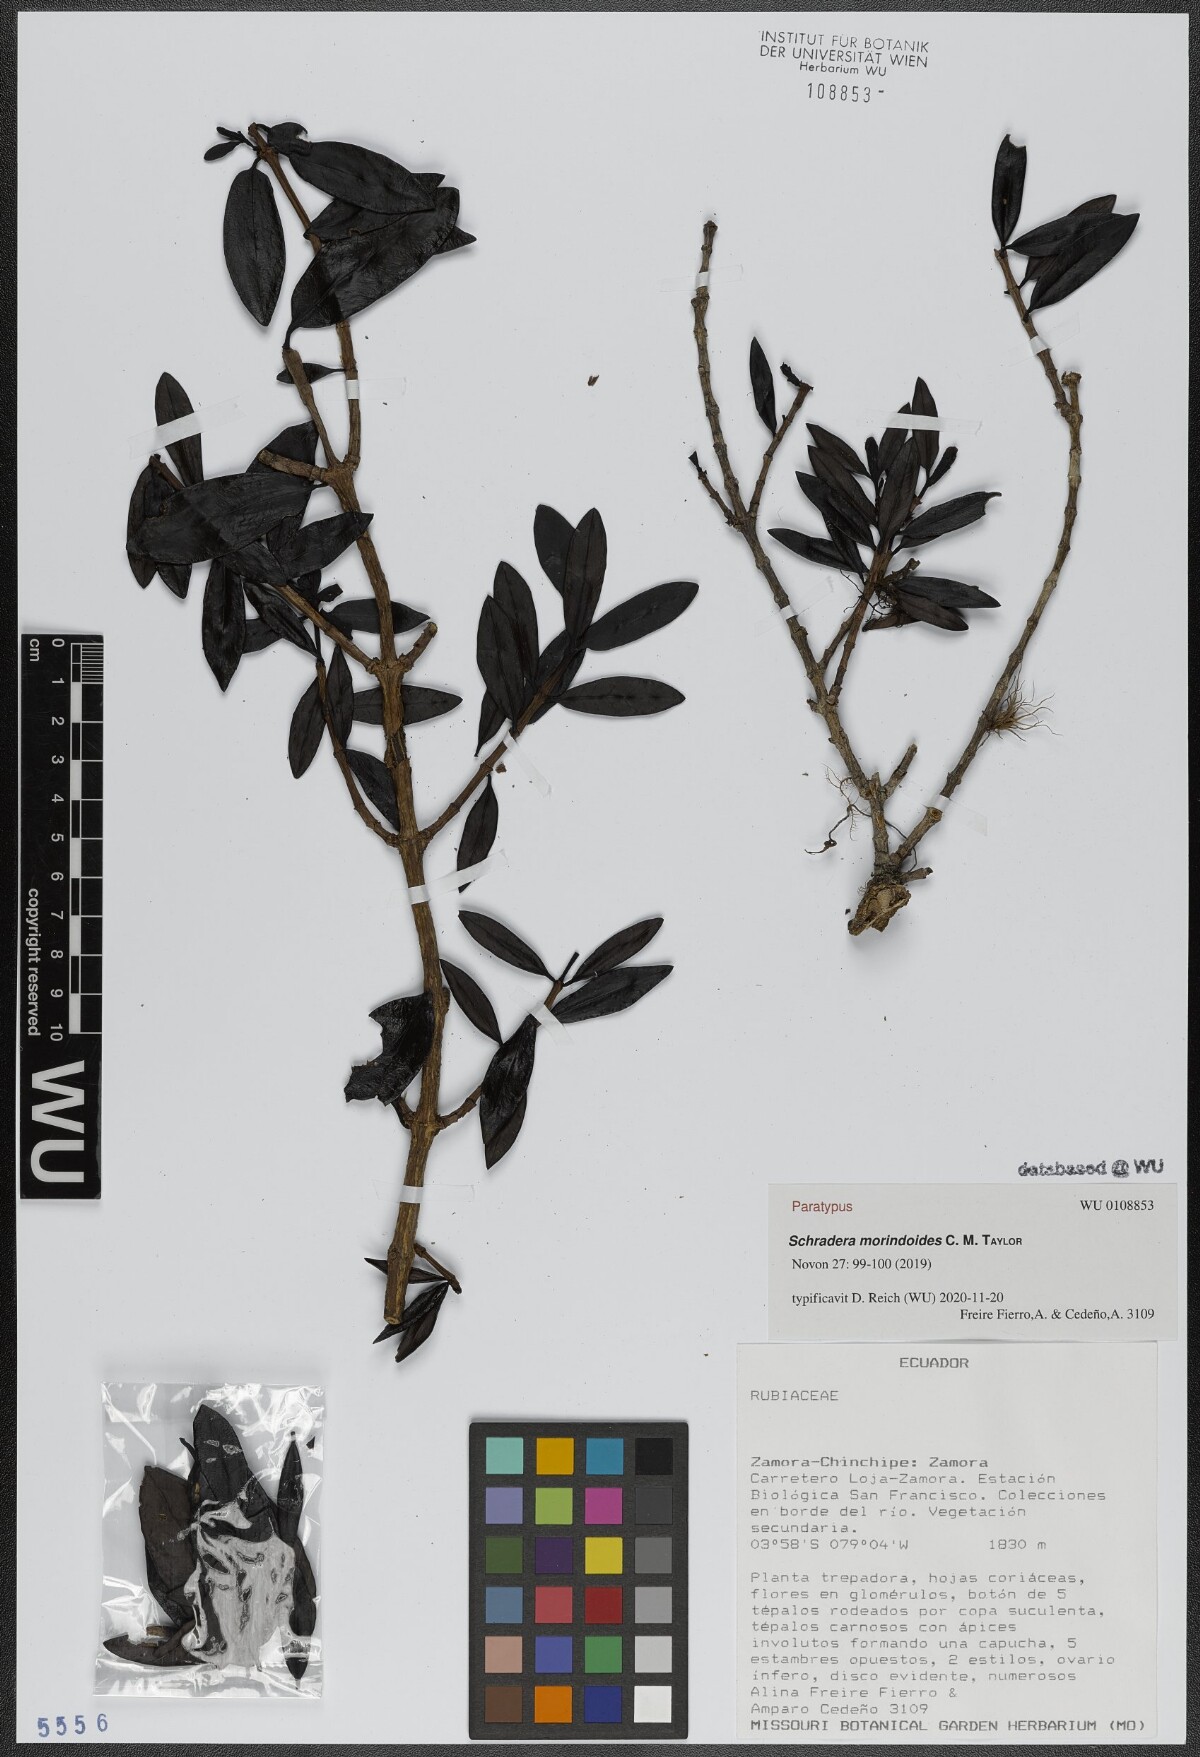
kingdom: Plantae
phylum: Tracheophyta
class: Magnoliopsida
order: Gentianales
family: Rubiaceae
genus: Schradera
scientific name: Schradera morindoides
